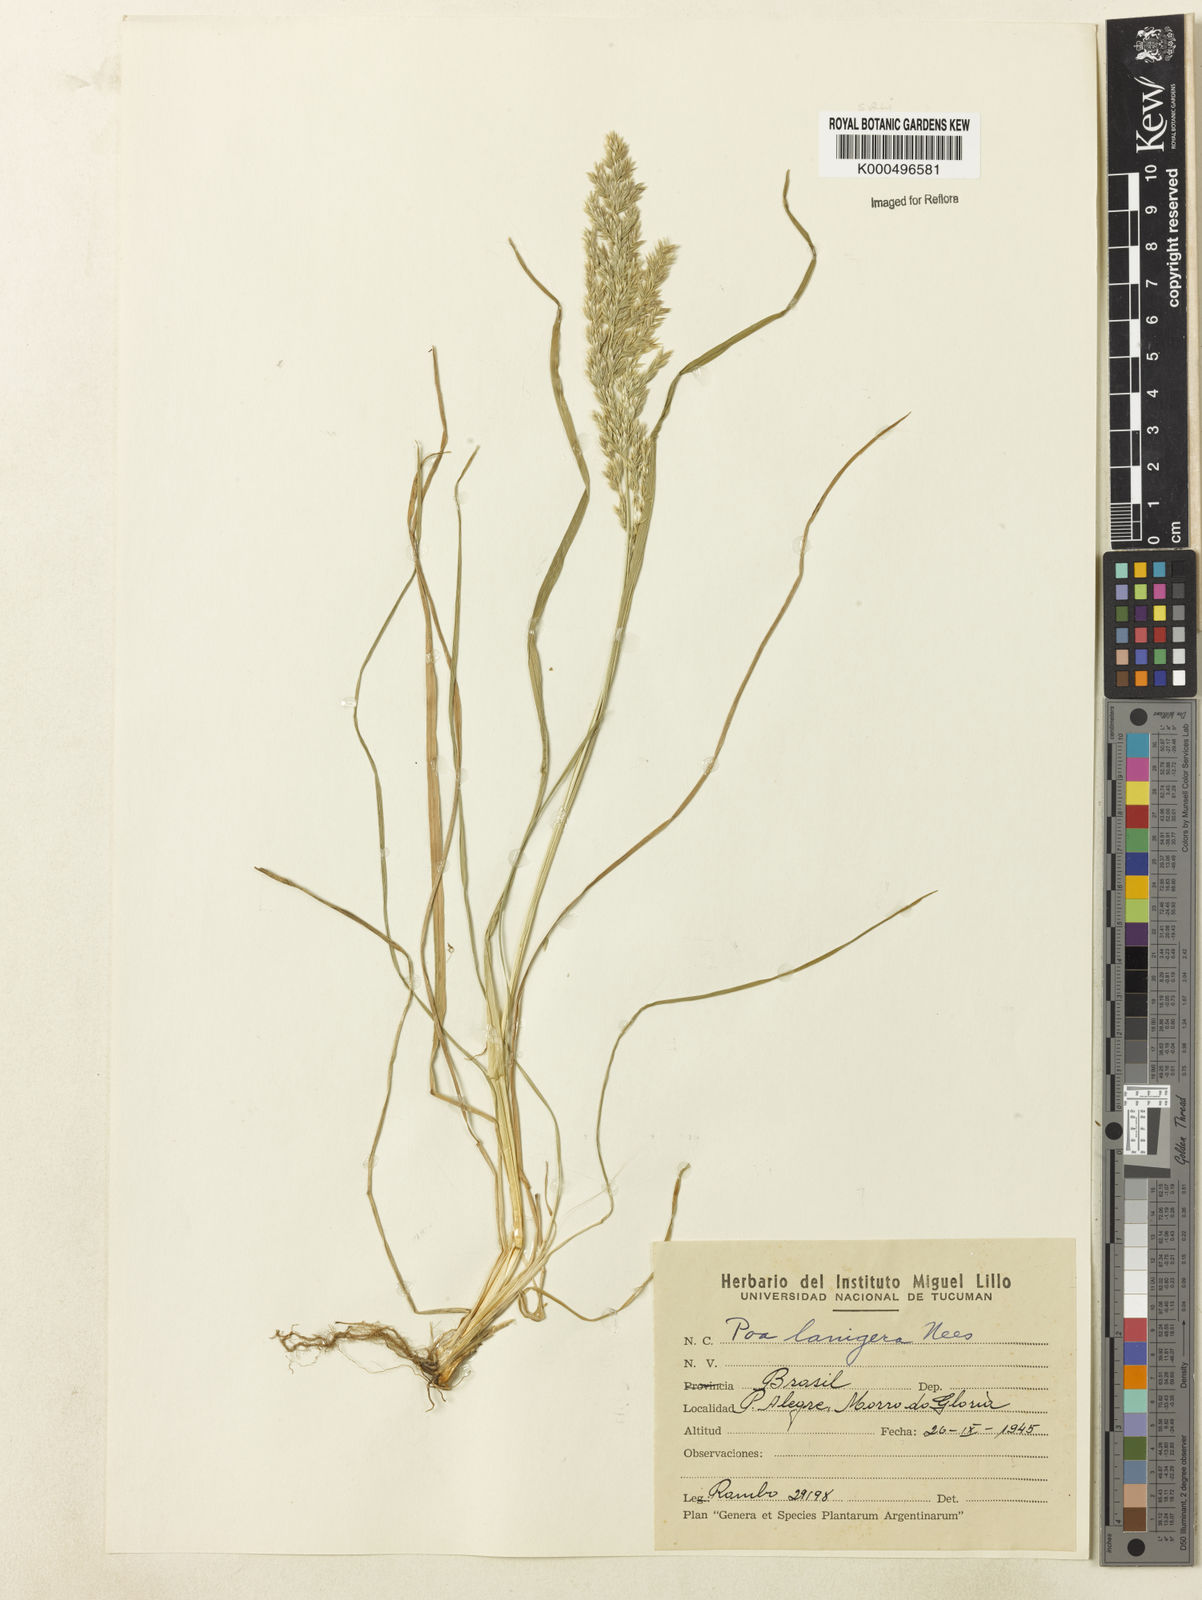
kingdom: Plantae
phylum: Tracheophyta
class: Liliopsida
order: Poales
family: Poaceae
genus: Poa
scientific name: Poa lanigera
